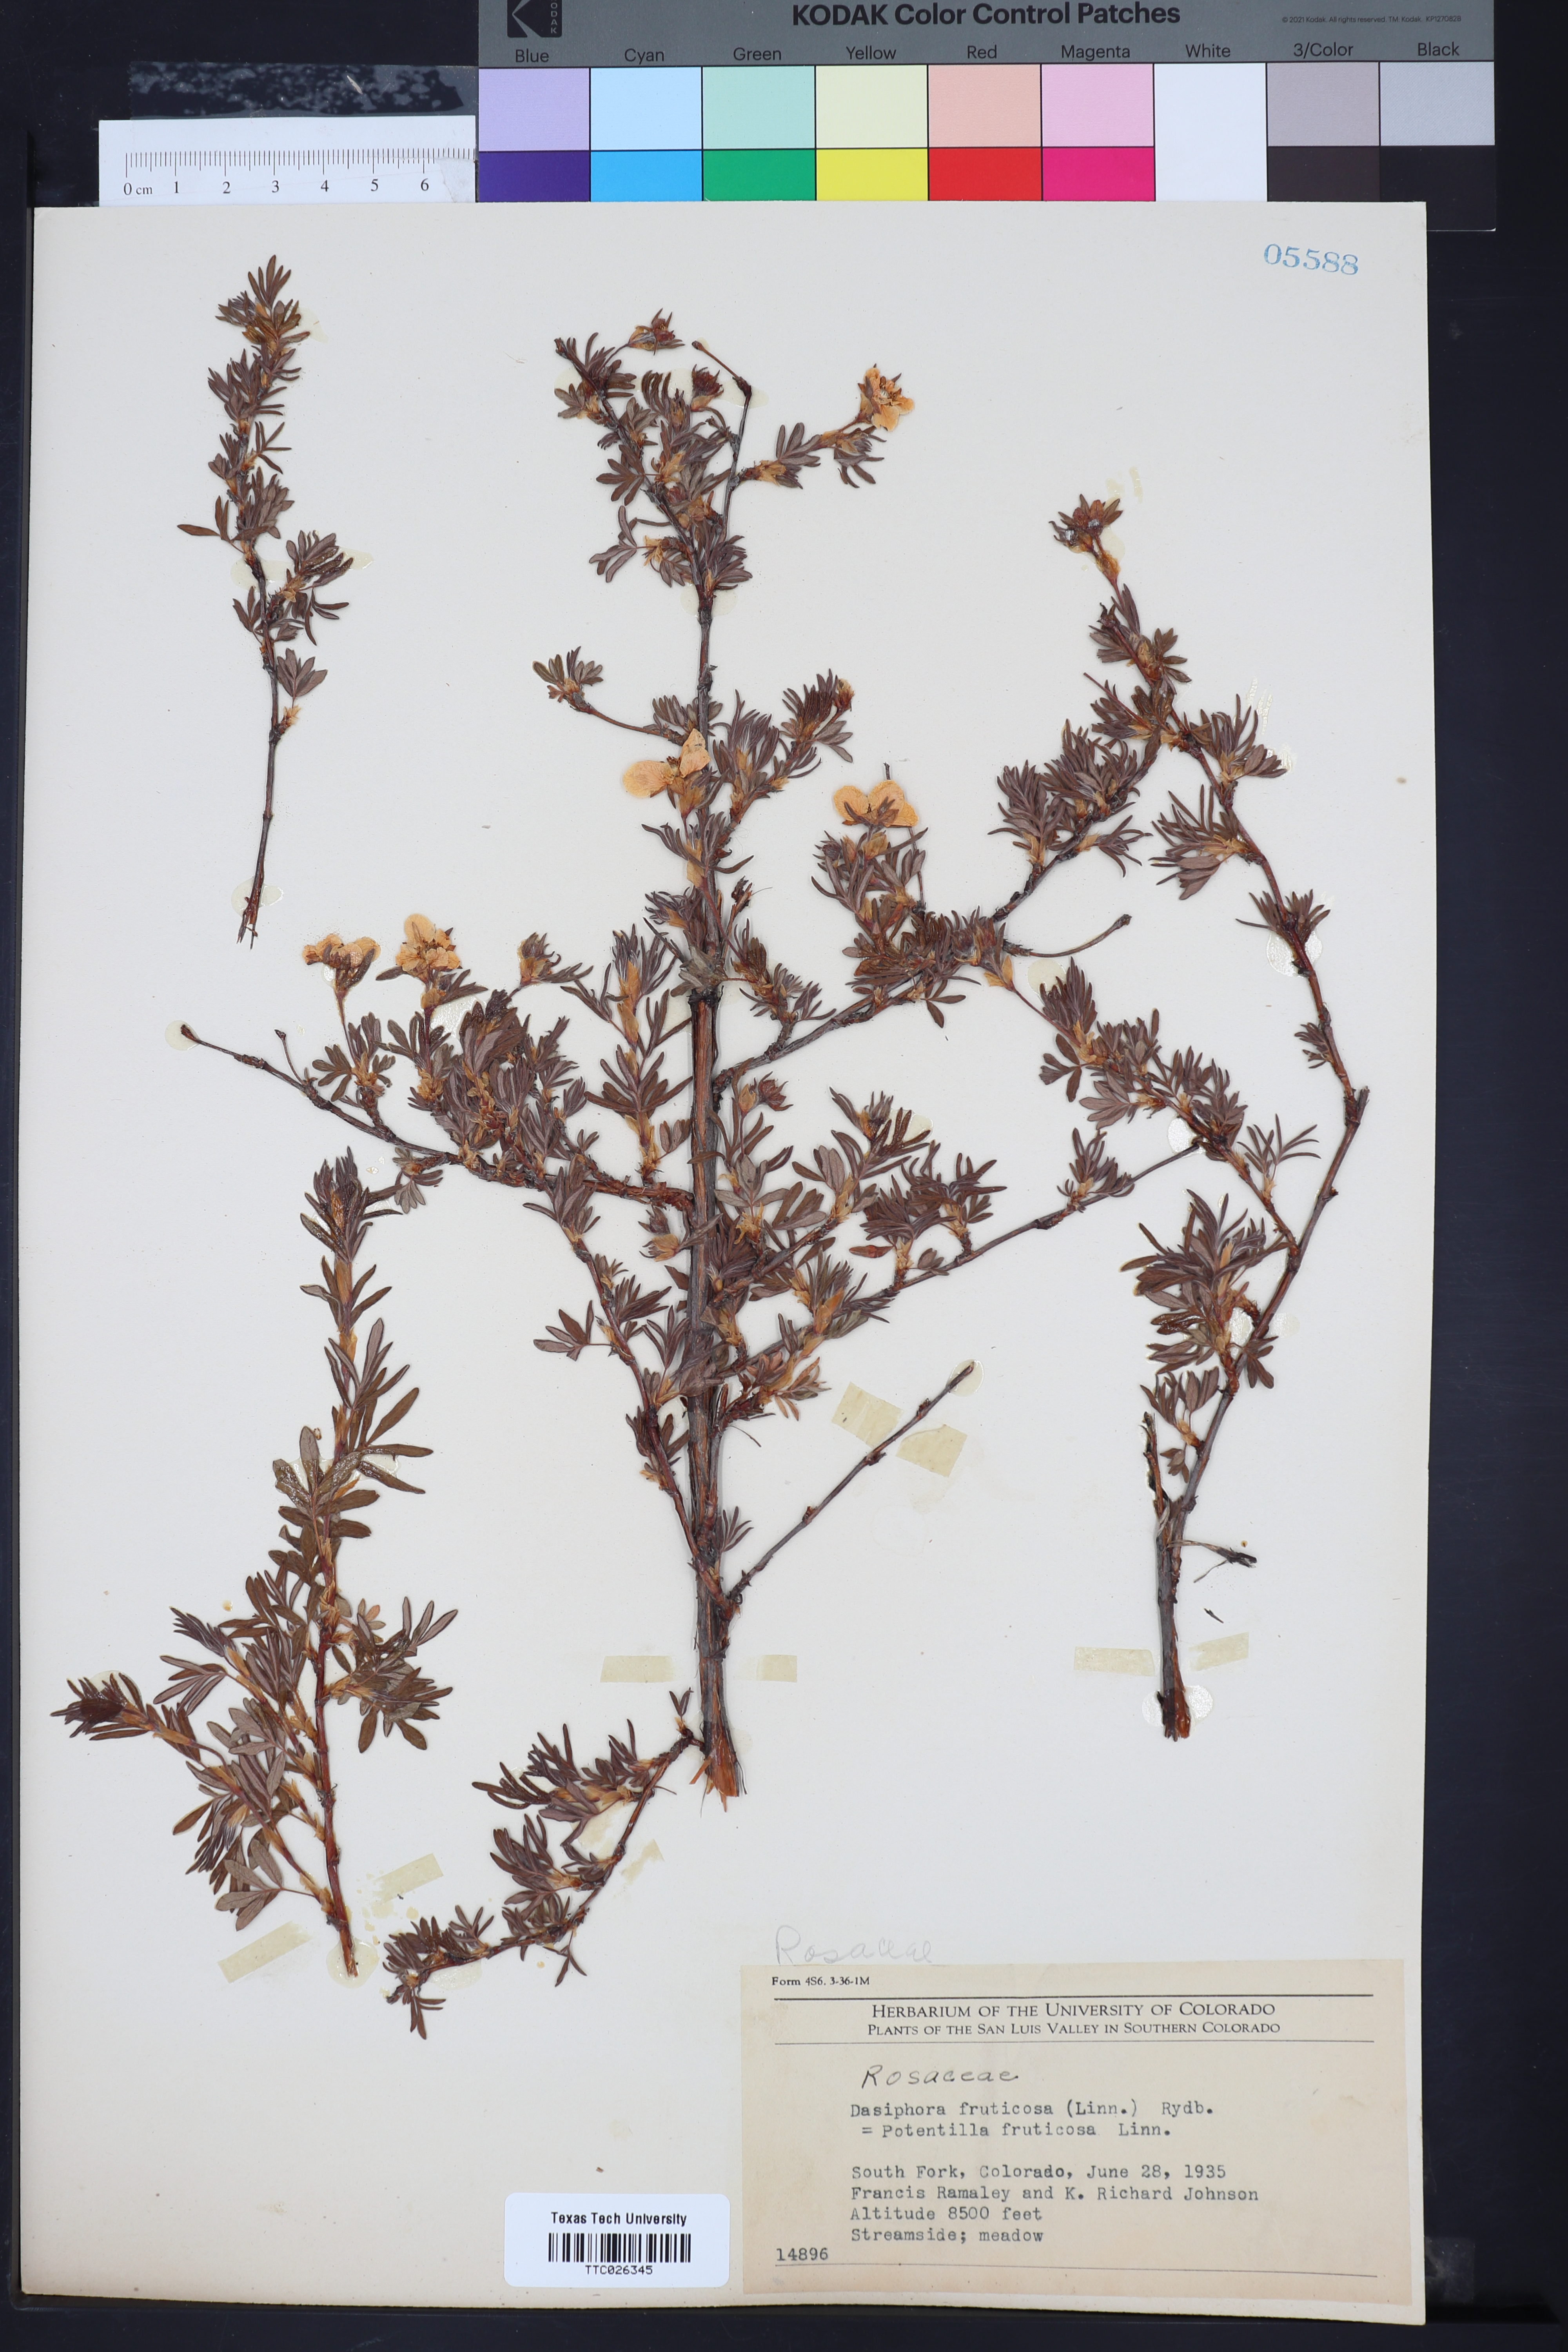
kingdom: Plantae
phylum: Tracheophyta
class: Magnoliopsida
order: Rosales
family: Rosaceae
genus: Dasiphora
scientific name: Dasiphora fruticosa
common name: Shrubby cinquefoil
